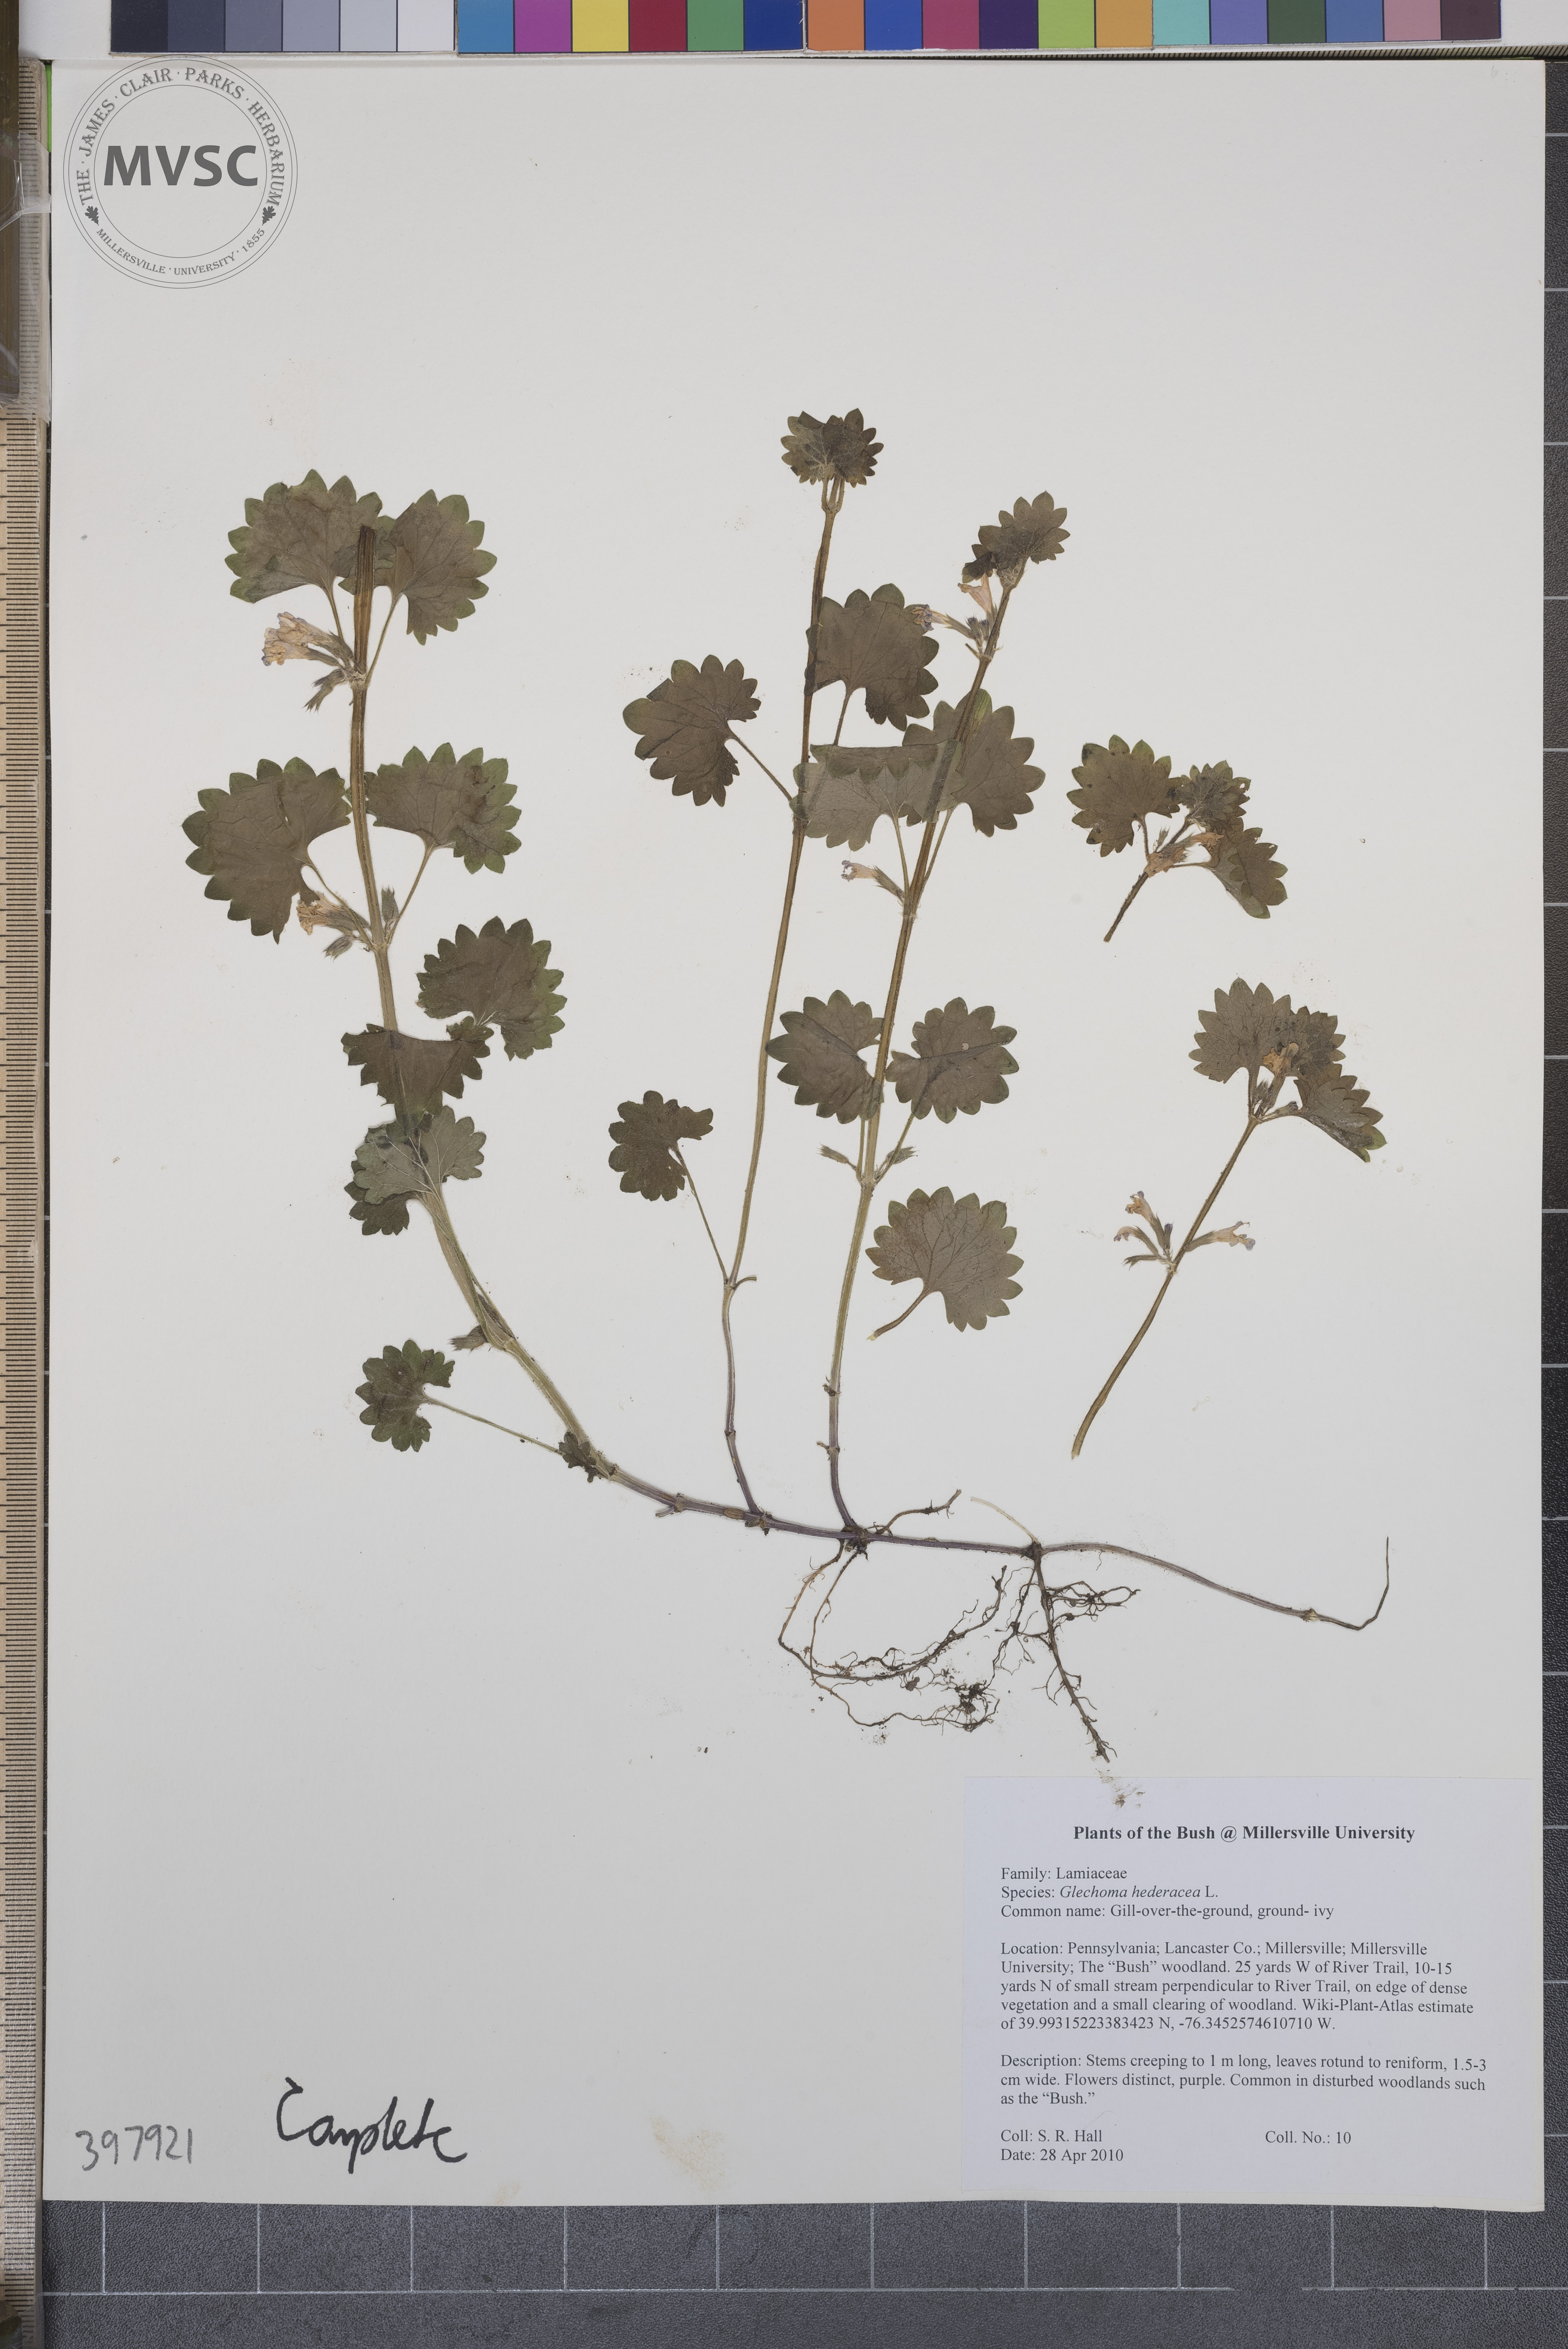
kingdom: Plantae
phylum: Tracheophyta
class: Magnoliopsida
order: Lamiales
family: Lamiaceae
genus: Glechoma
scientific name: Glechoma hederacea
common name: Gill-over-the-ground
